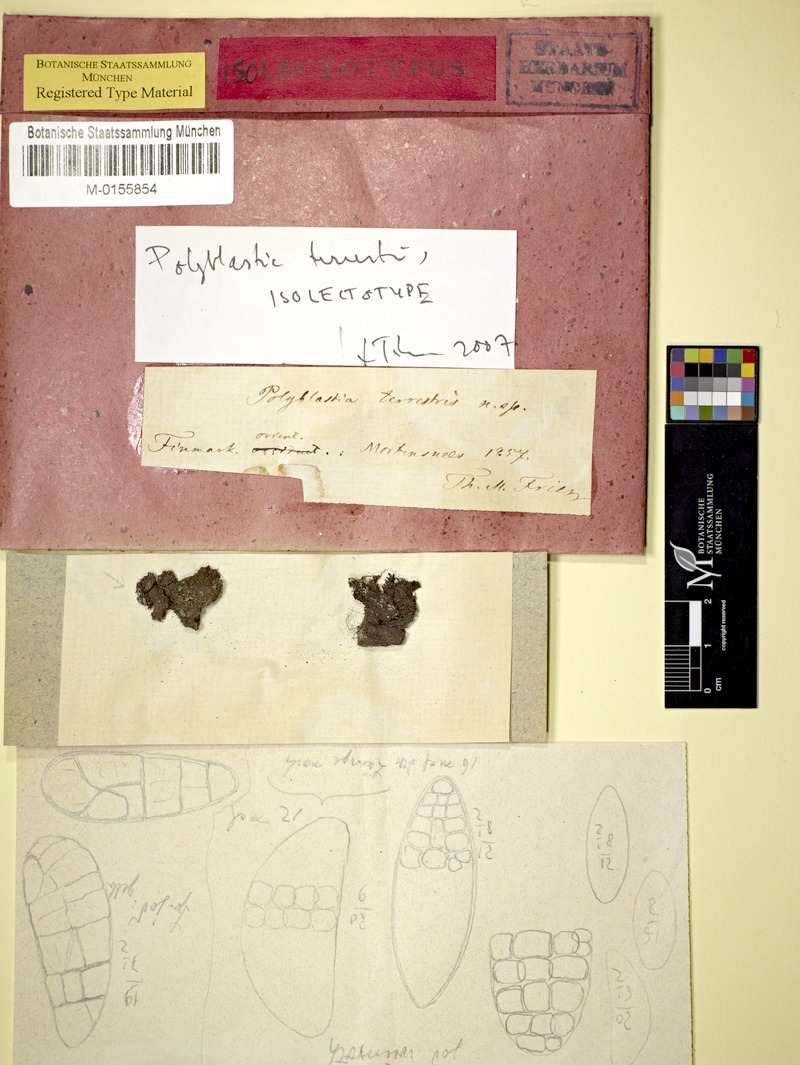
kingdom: Fungi
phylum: Ascomycota
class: Eurotiomycetes
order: Verrucariales
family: Verrucariaceae
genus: Sporodictyon
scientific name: Sporodictyon terrestre
